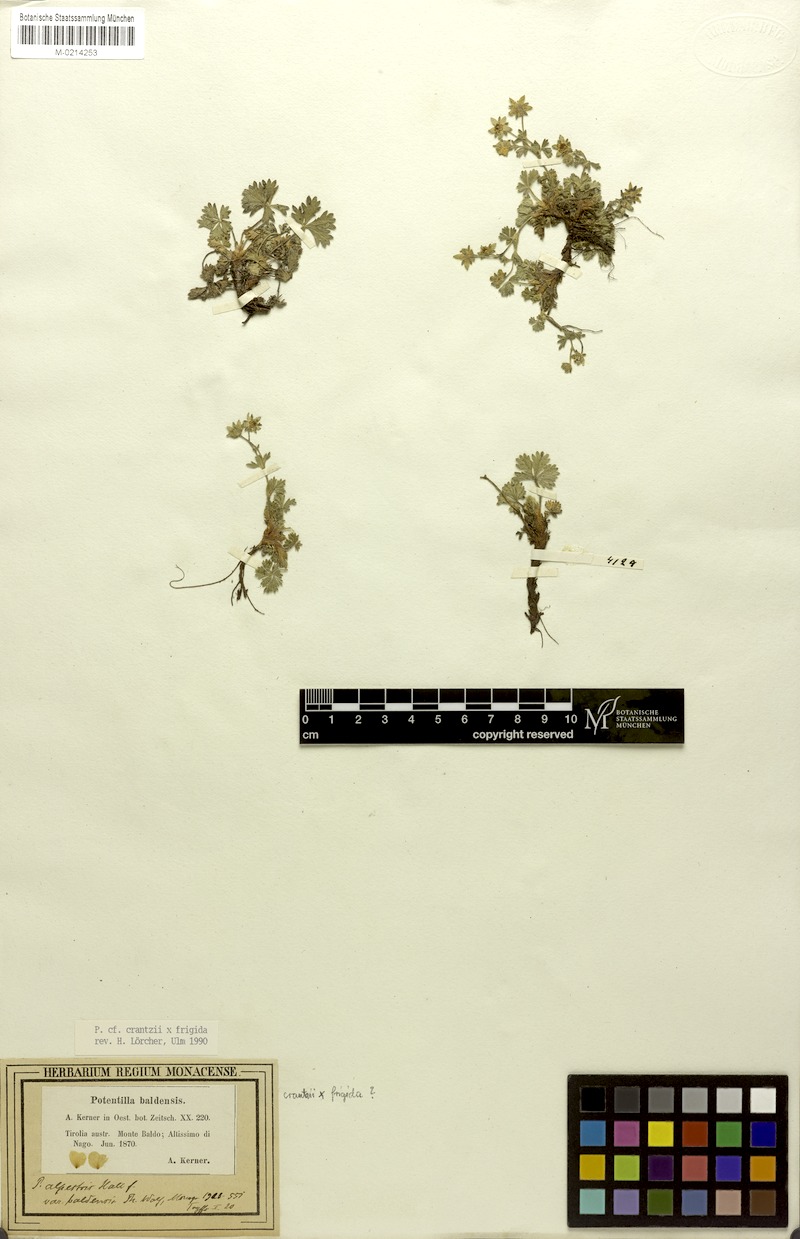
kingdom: Plantae
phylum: Tracheophyta
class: Magnoliopsida
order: Rosales
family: Rosaceae
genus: Potentilla
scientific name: Potentilla crantzii
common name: Alpine cinquefoil
